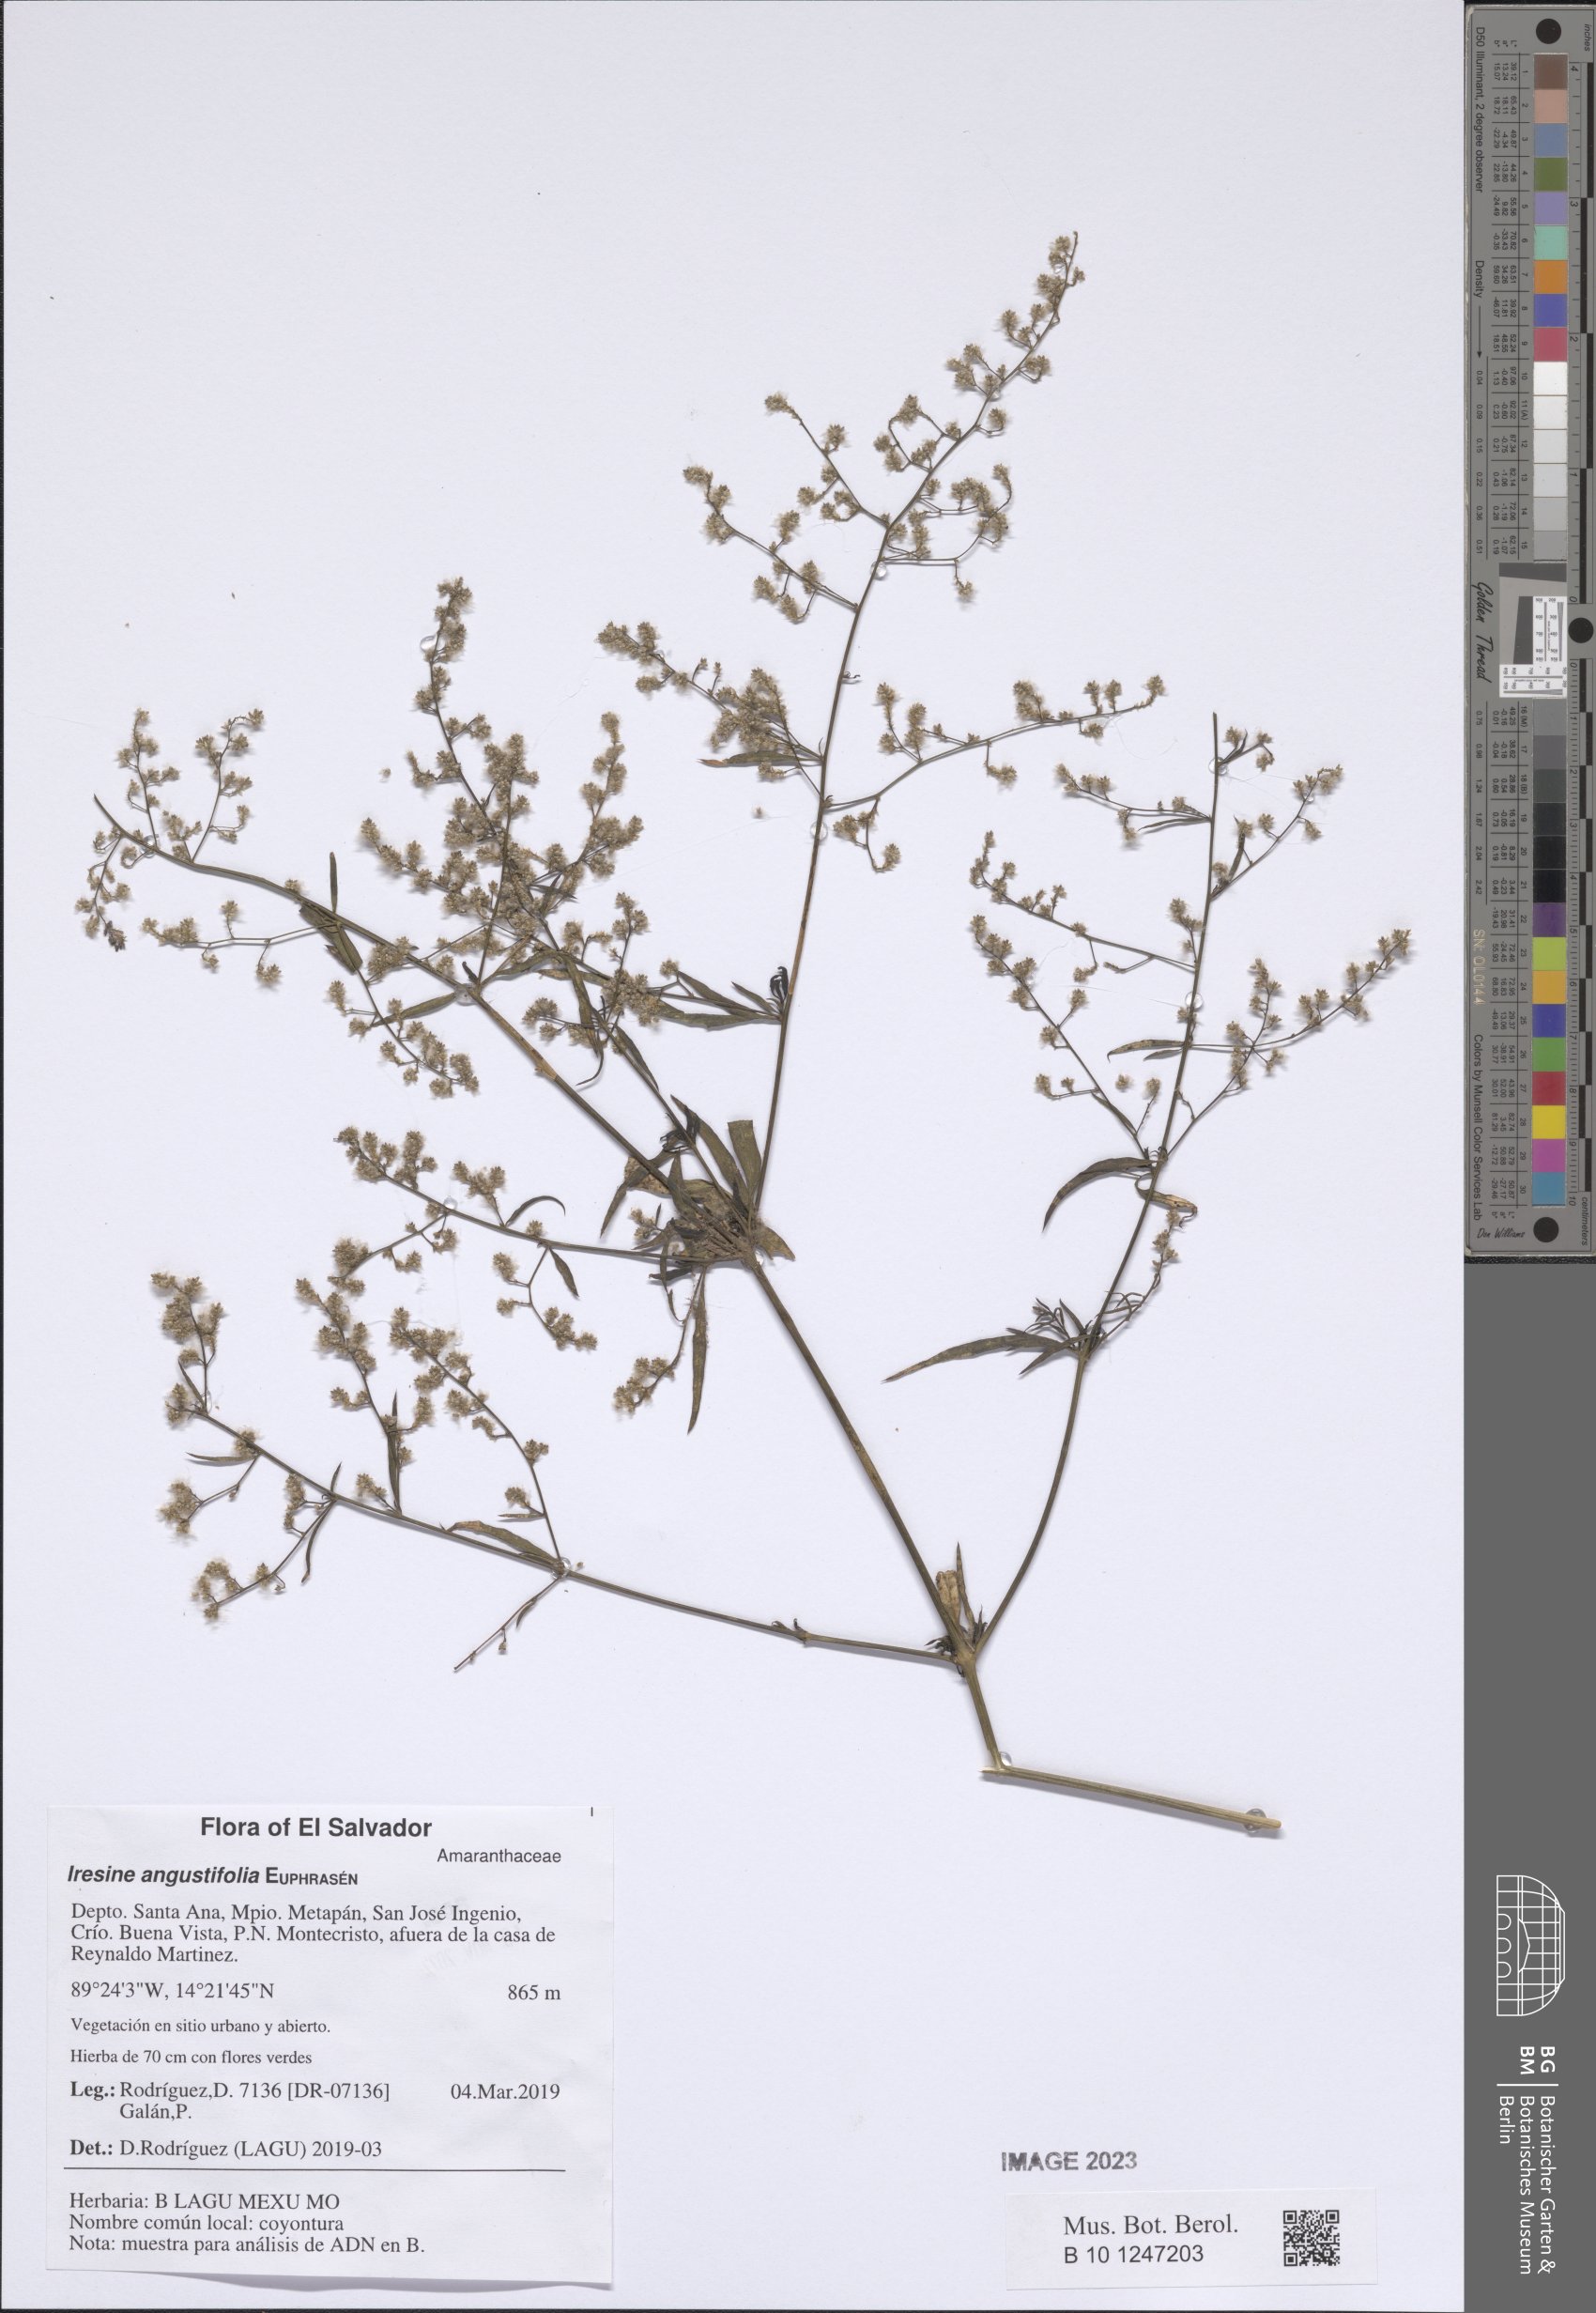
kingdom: Plantae
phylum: Tracheophyta
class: Magnoliopsida
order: Caryophyllales
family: Amaranthaceae
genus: Iresine
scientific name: Iresine angustifolia
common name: White snowplant
